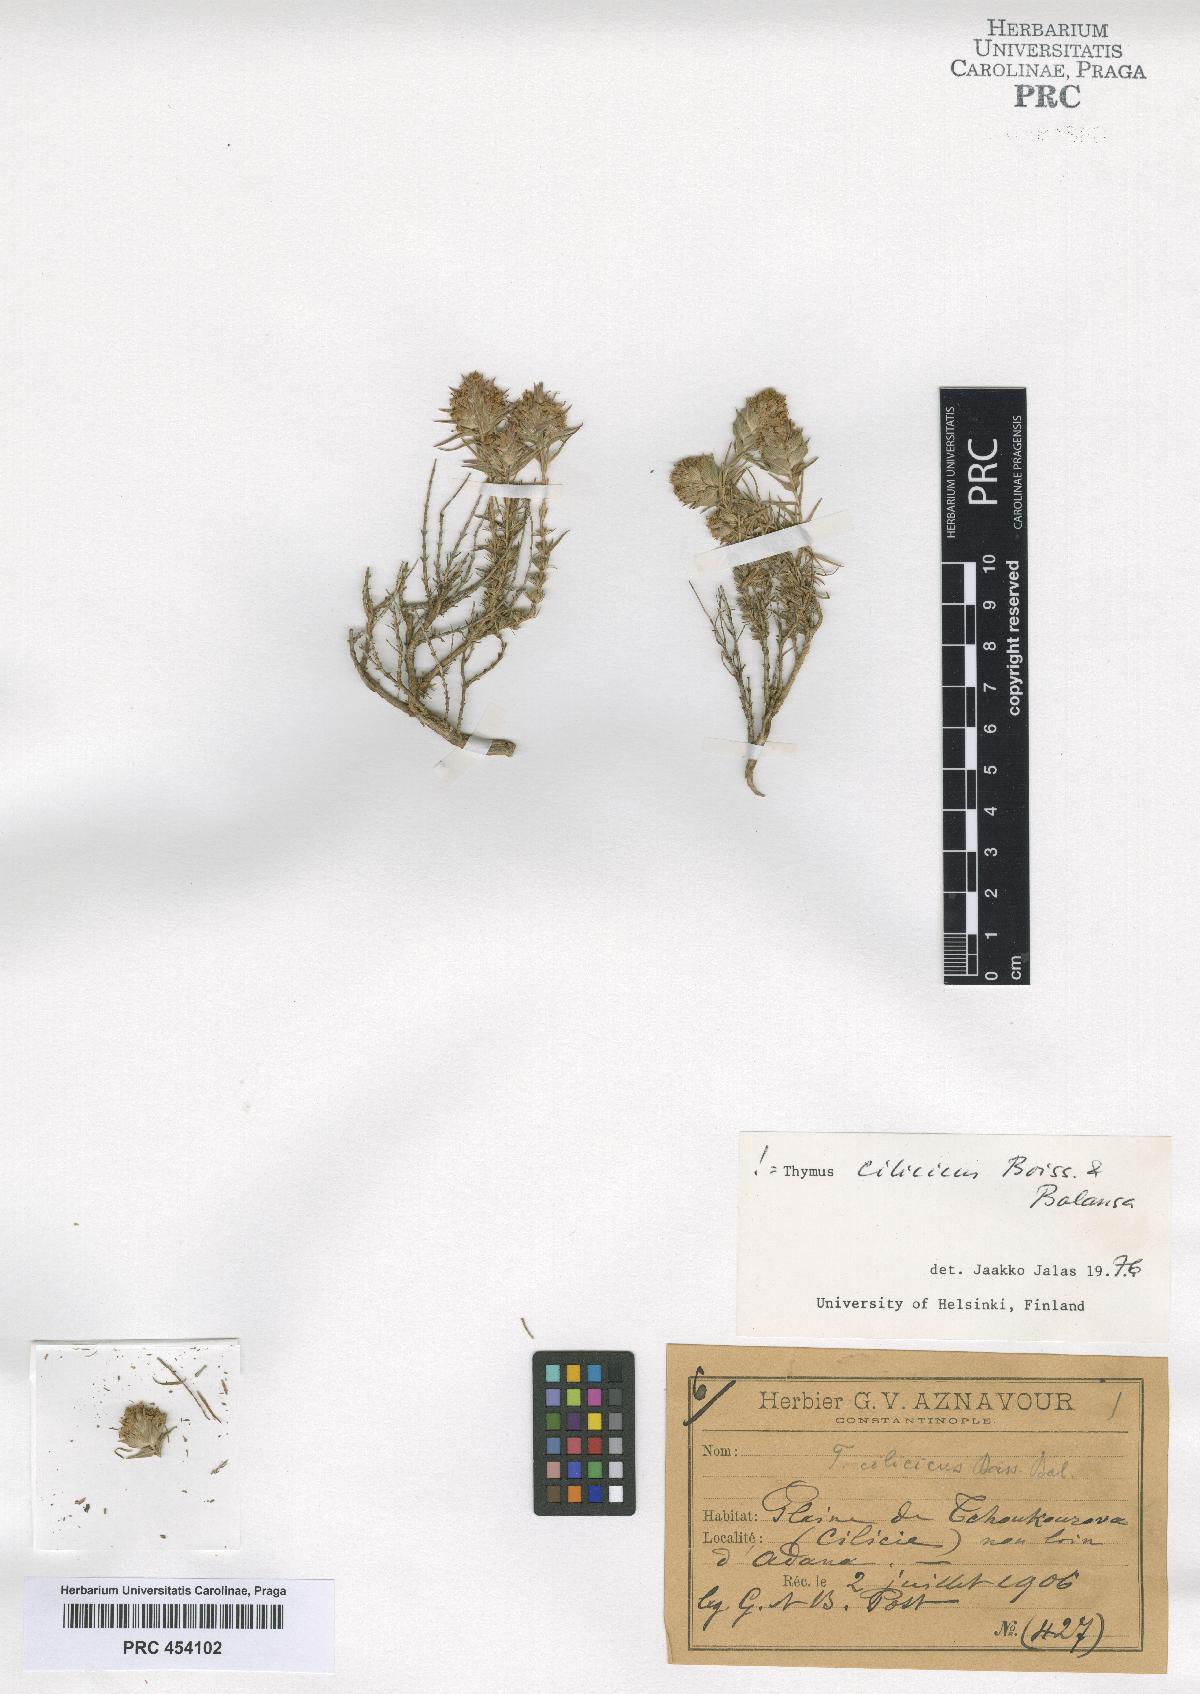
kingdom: Plantae
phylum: Tracheophyta
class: Magnoliopsida
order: Lamiales
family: Lamiaceae
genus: Thymus
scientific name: Thymus cilicicus
